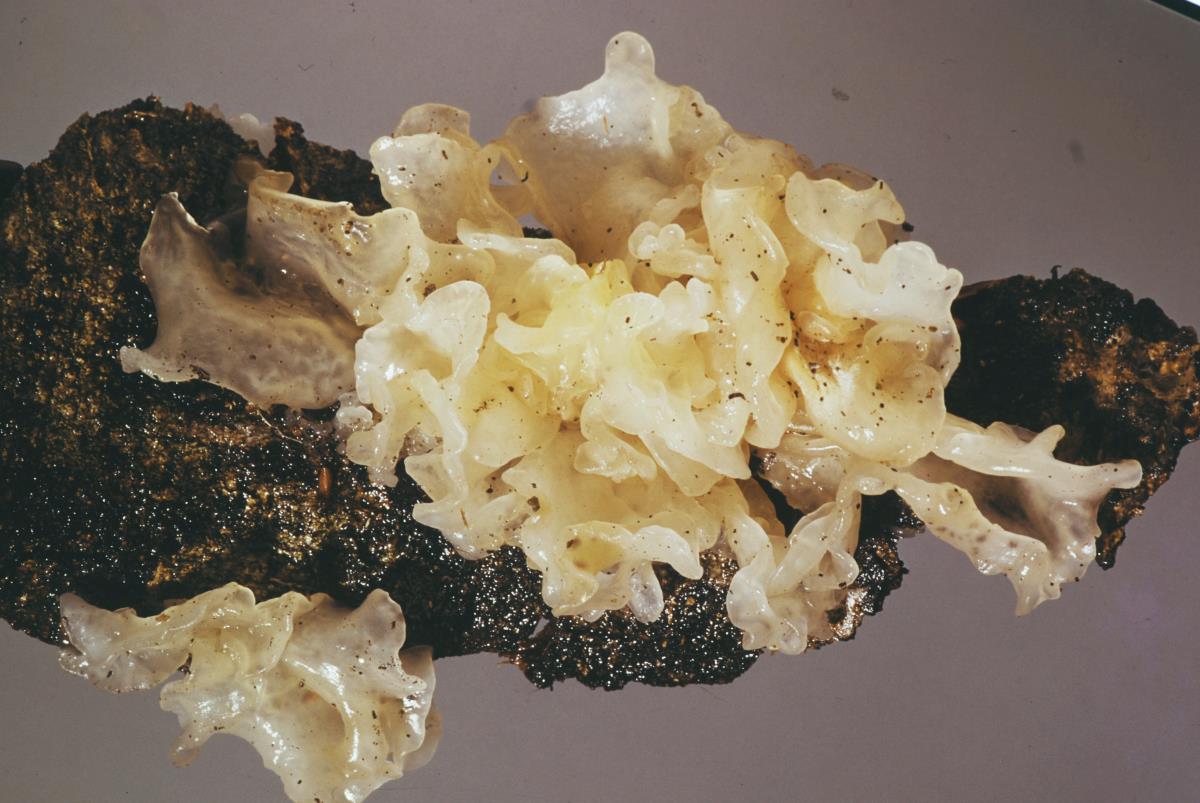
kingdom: Fungi
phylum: Basidiomycota
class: Tremellomycetes
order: Tremellales
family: Tremellaceae
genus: Tremella
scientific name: Tremella fuciformis
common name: Snow fungus
